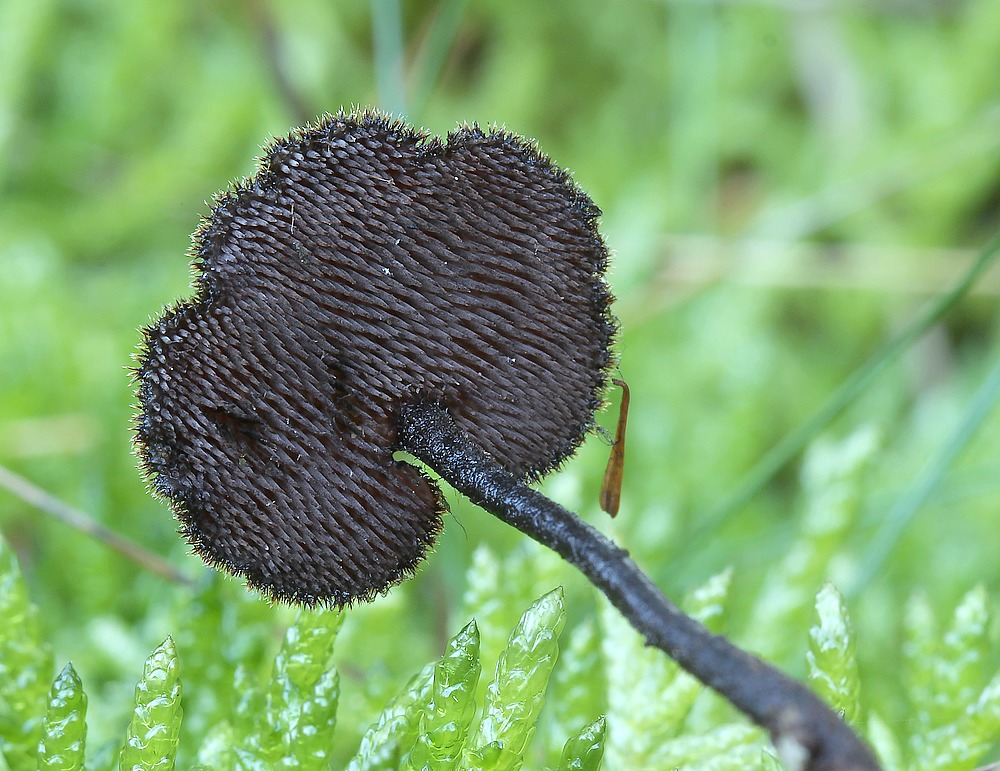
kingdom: Fungi
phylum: Basidiomycota
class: Agaricomycetes
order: Russulales
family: Auriscalpiaceae
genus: Auriscalpium
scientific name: Auriscalpium vulgare
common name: koglepigsvamp
